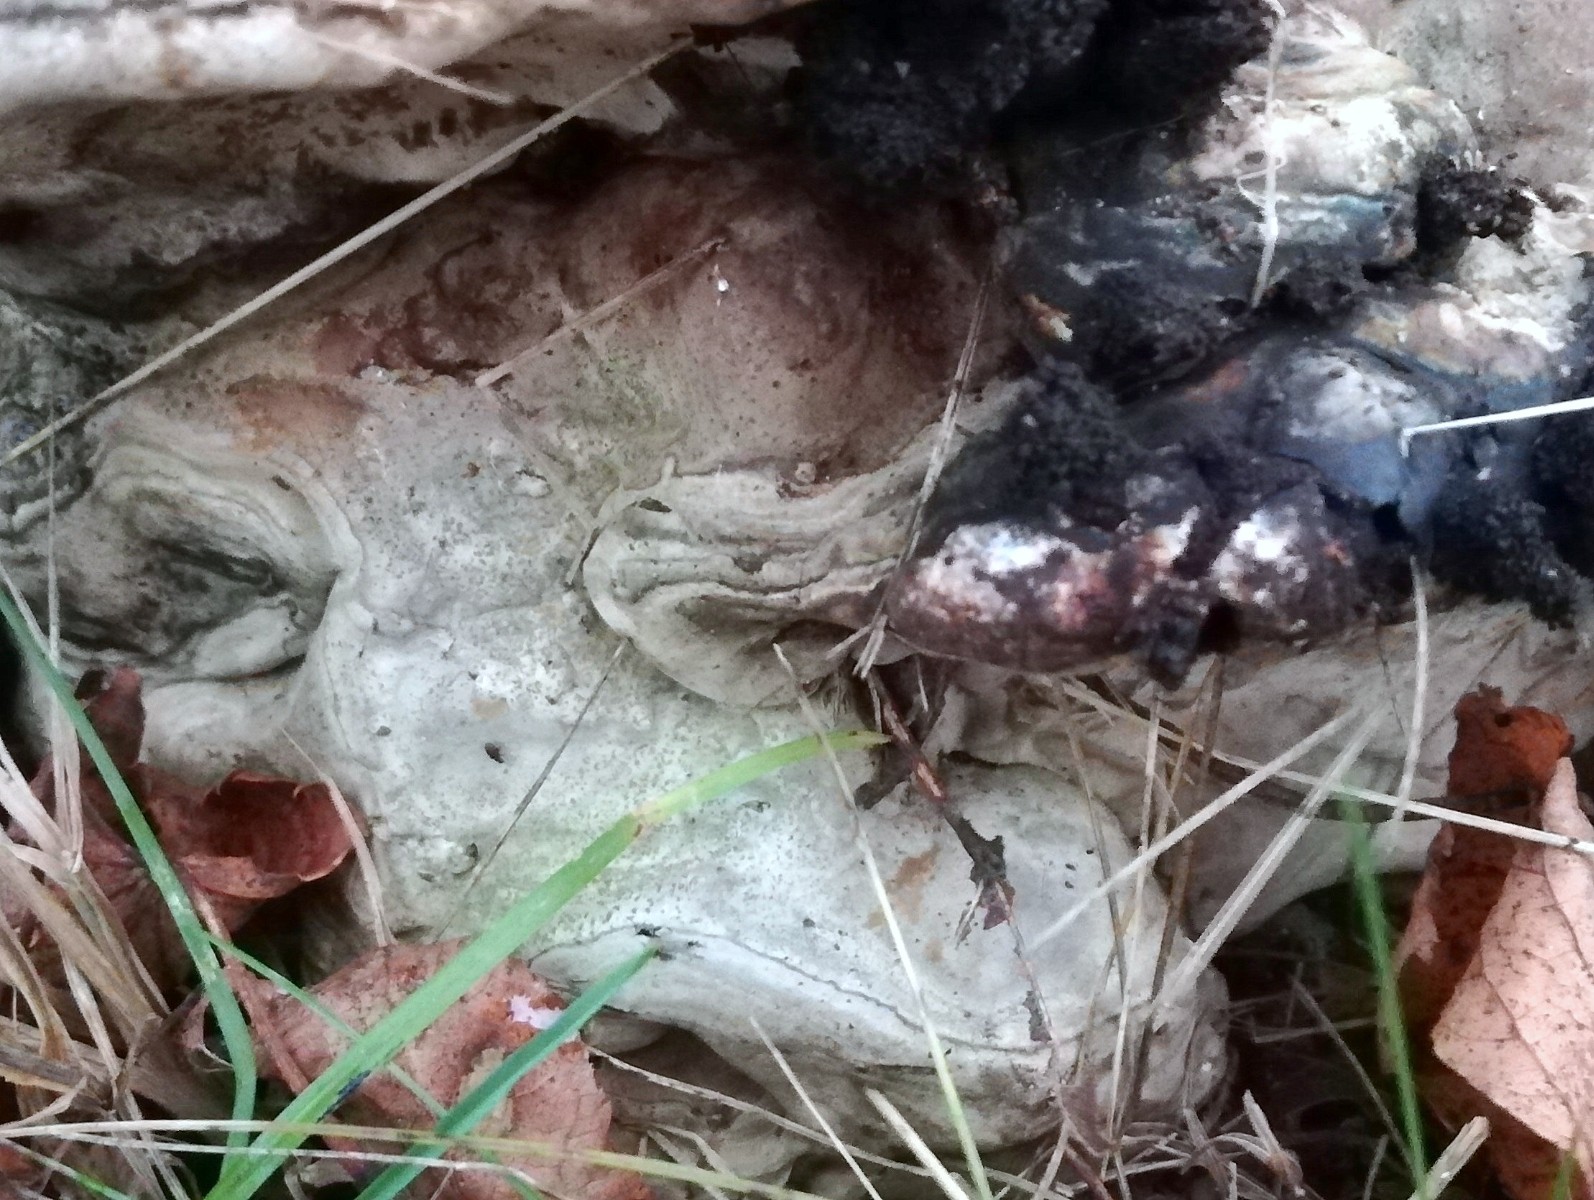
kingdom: Fungi
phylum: Basidiomycota
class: Agaricomycetes
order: Polyporales
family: Polyporaceae
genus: Ganoderma
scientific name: Ganoderma adspersum
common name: grov lakporesvamp
